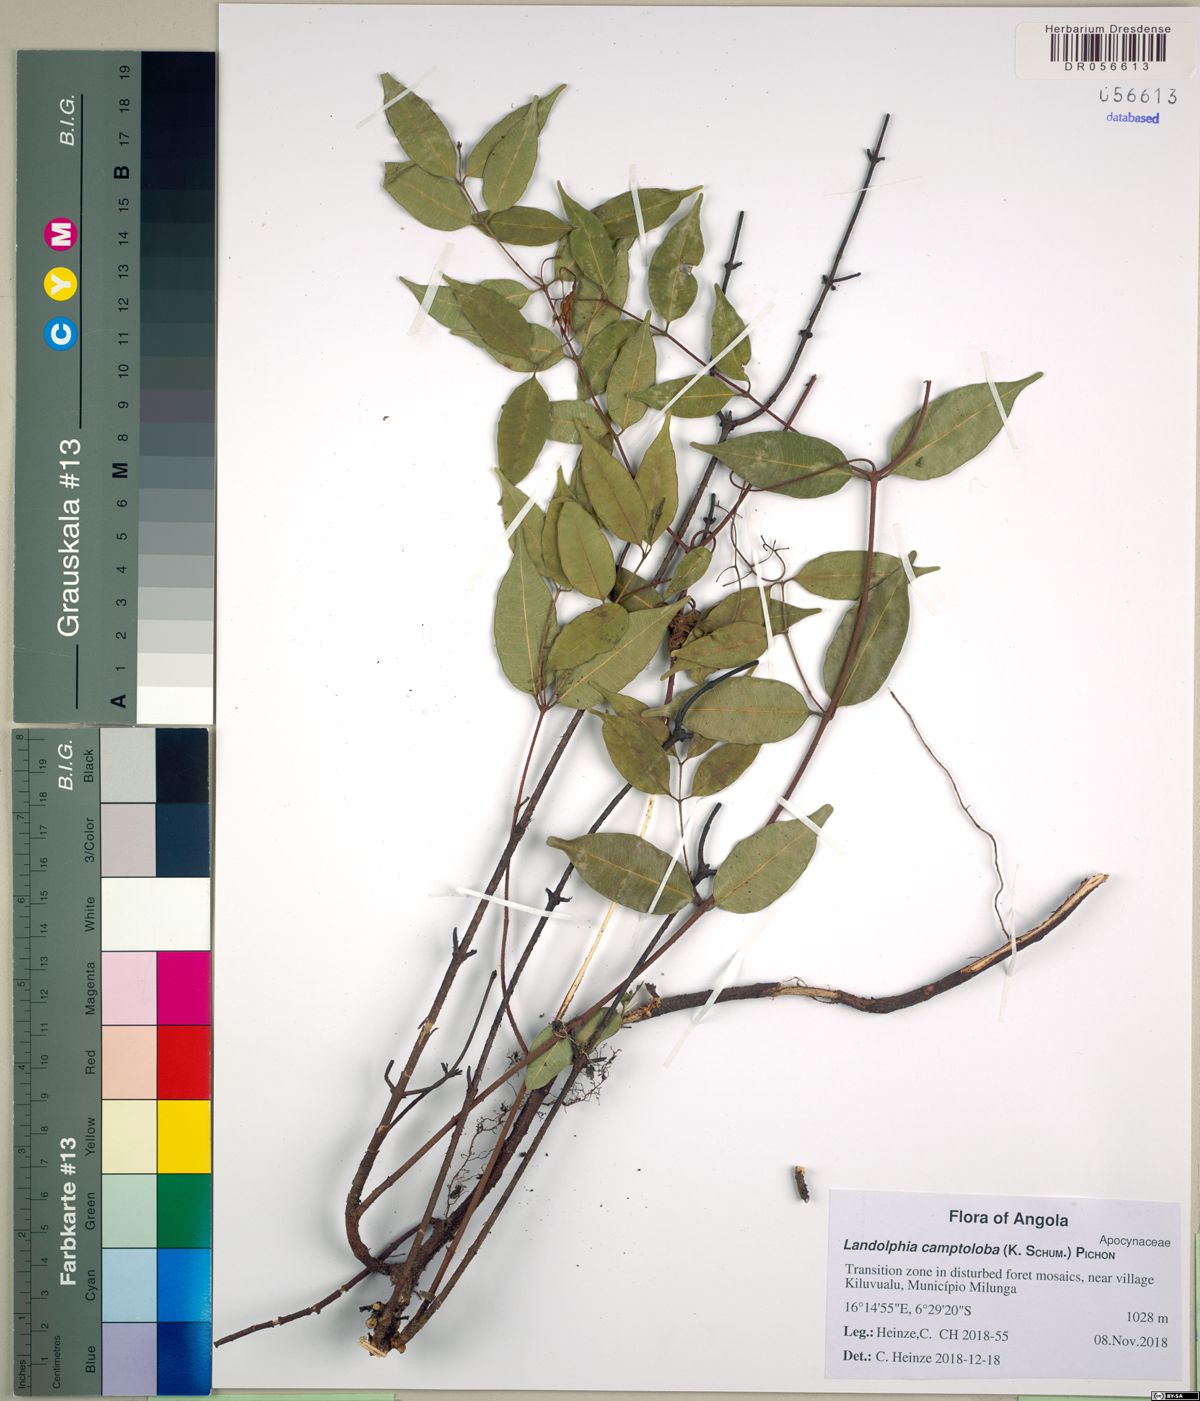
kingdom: Plantae
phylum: Tracheophyta
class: Magnoliopsida
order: Gentianales
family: Apocynaceae
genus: Landolphia
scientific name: Landolphia camptoloba
